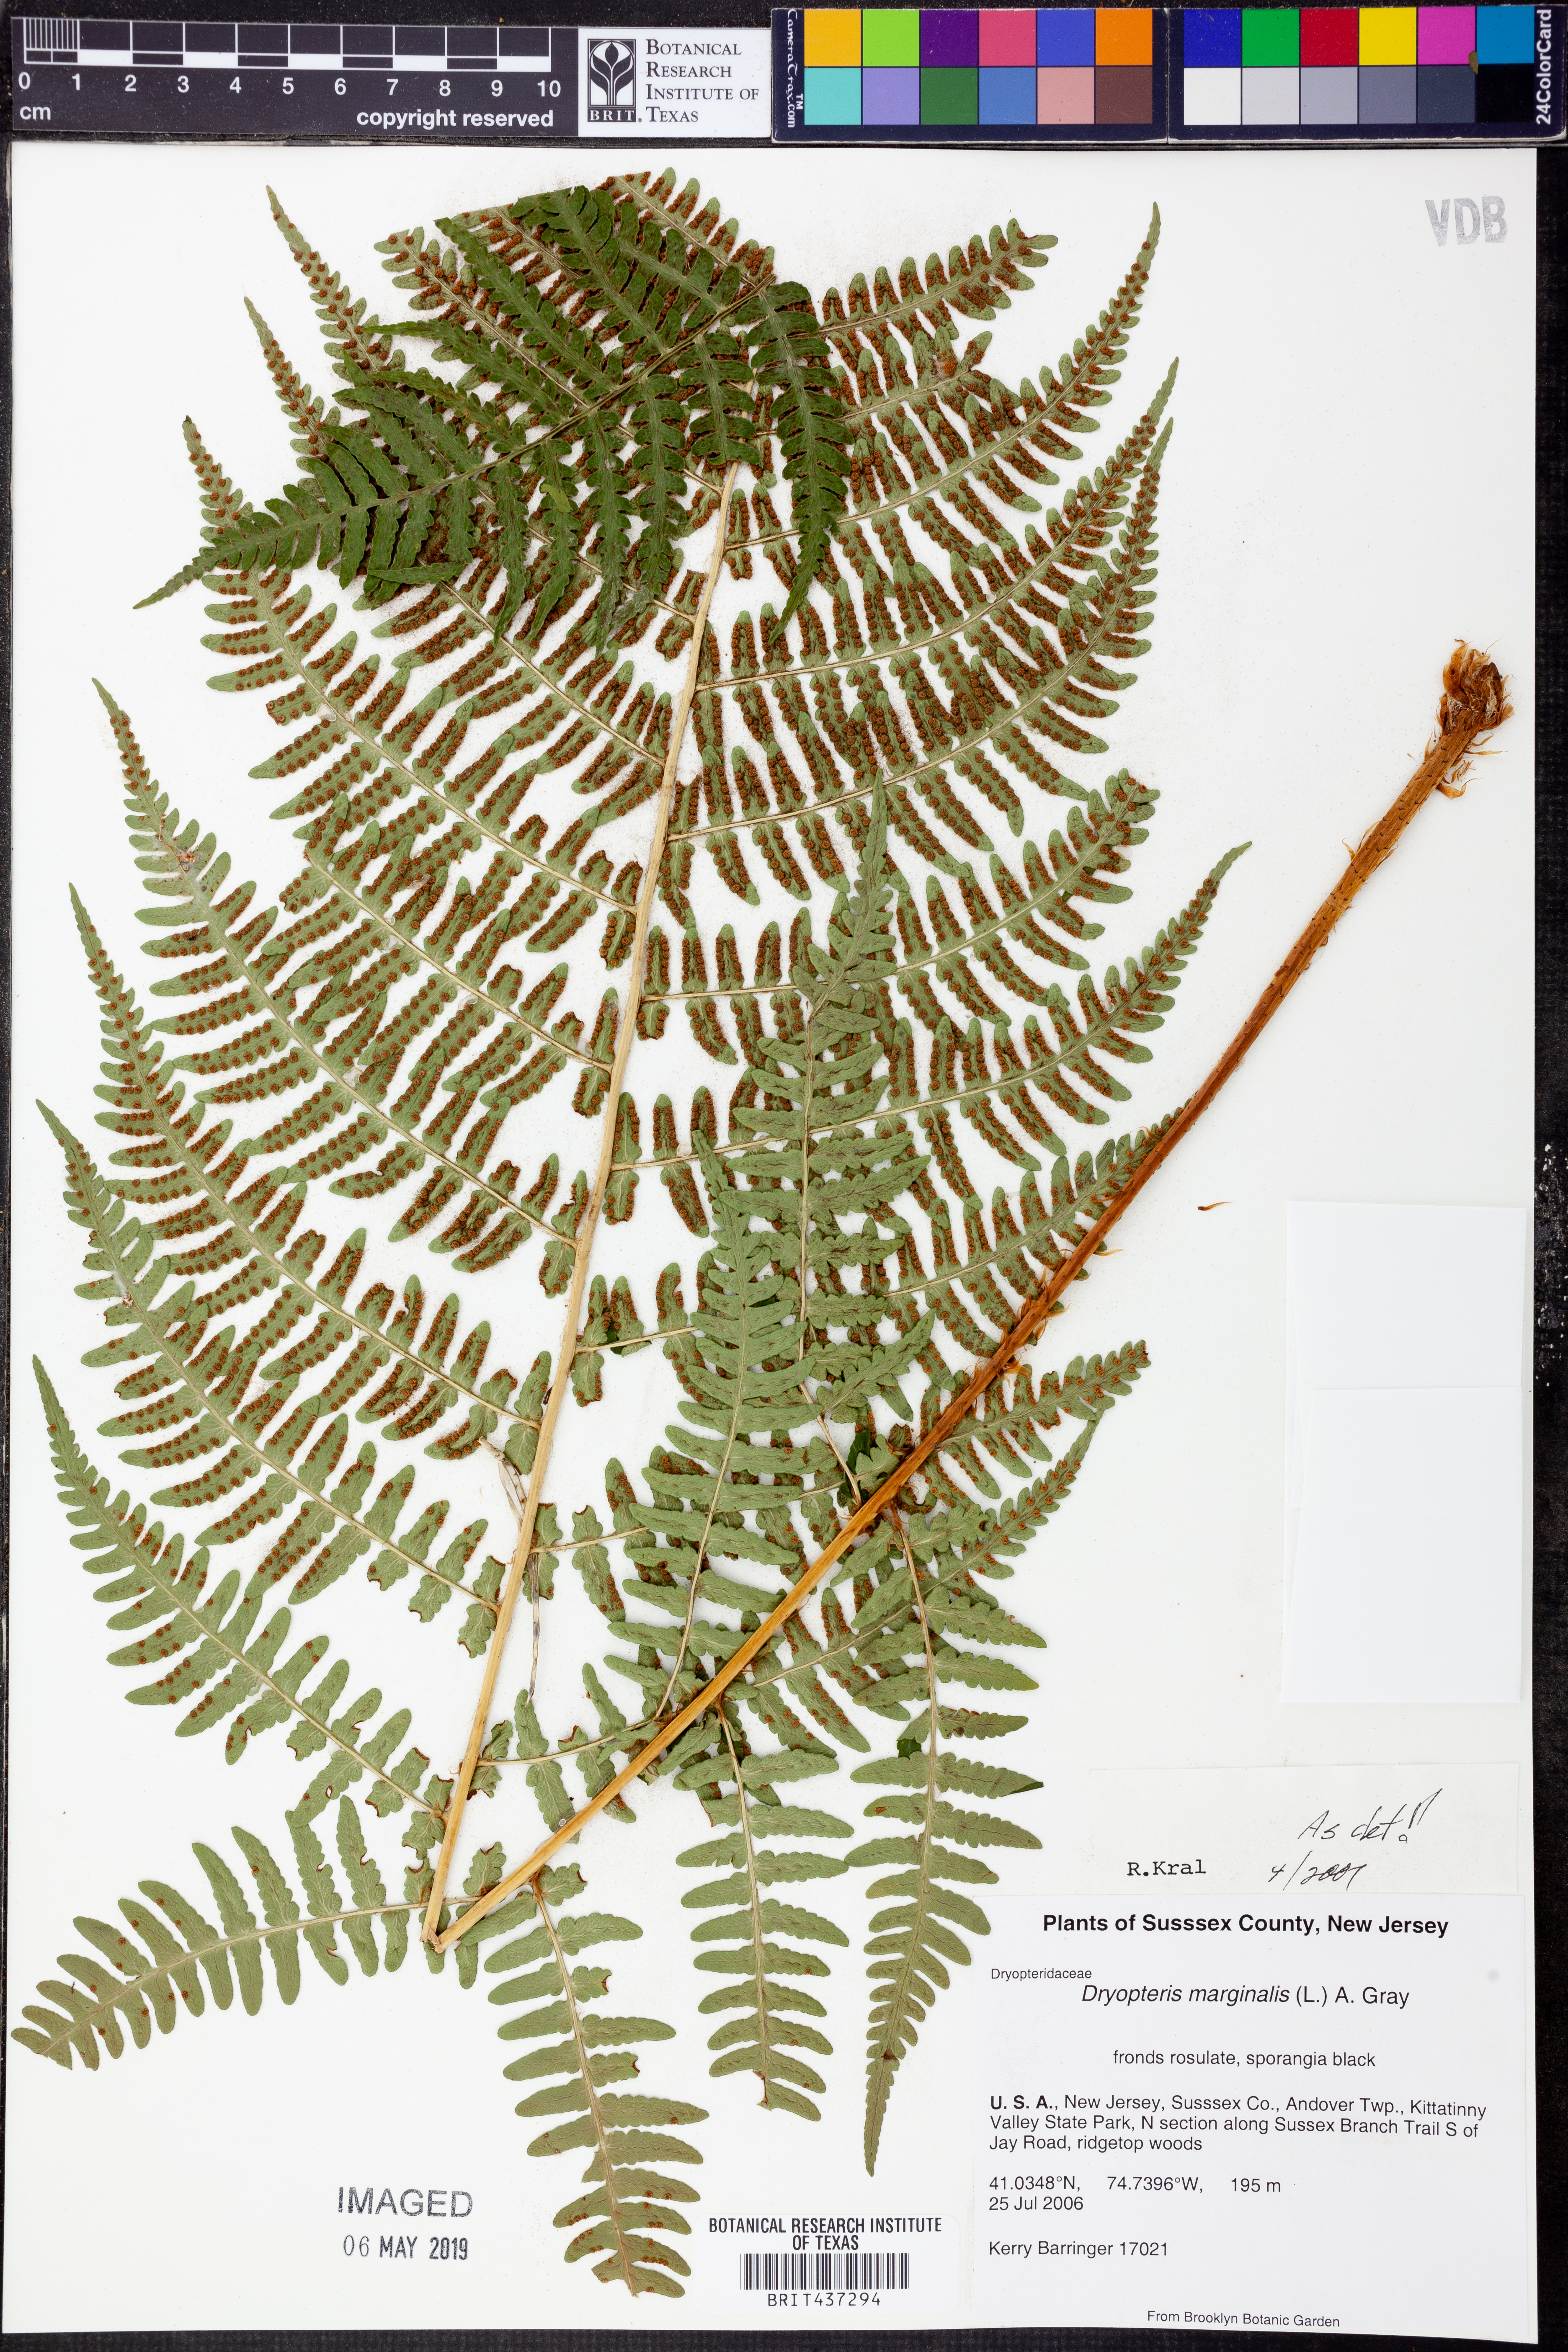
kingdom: Plantae
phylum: Tracheophyta
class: Polypodiopsida
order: Polypodiales
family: Dryopteridaceae
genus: Dryopteris
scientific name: Dryopteris marginalis
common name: Marginal wood fern
